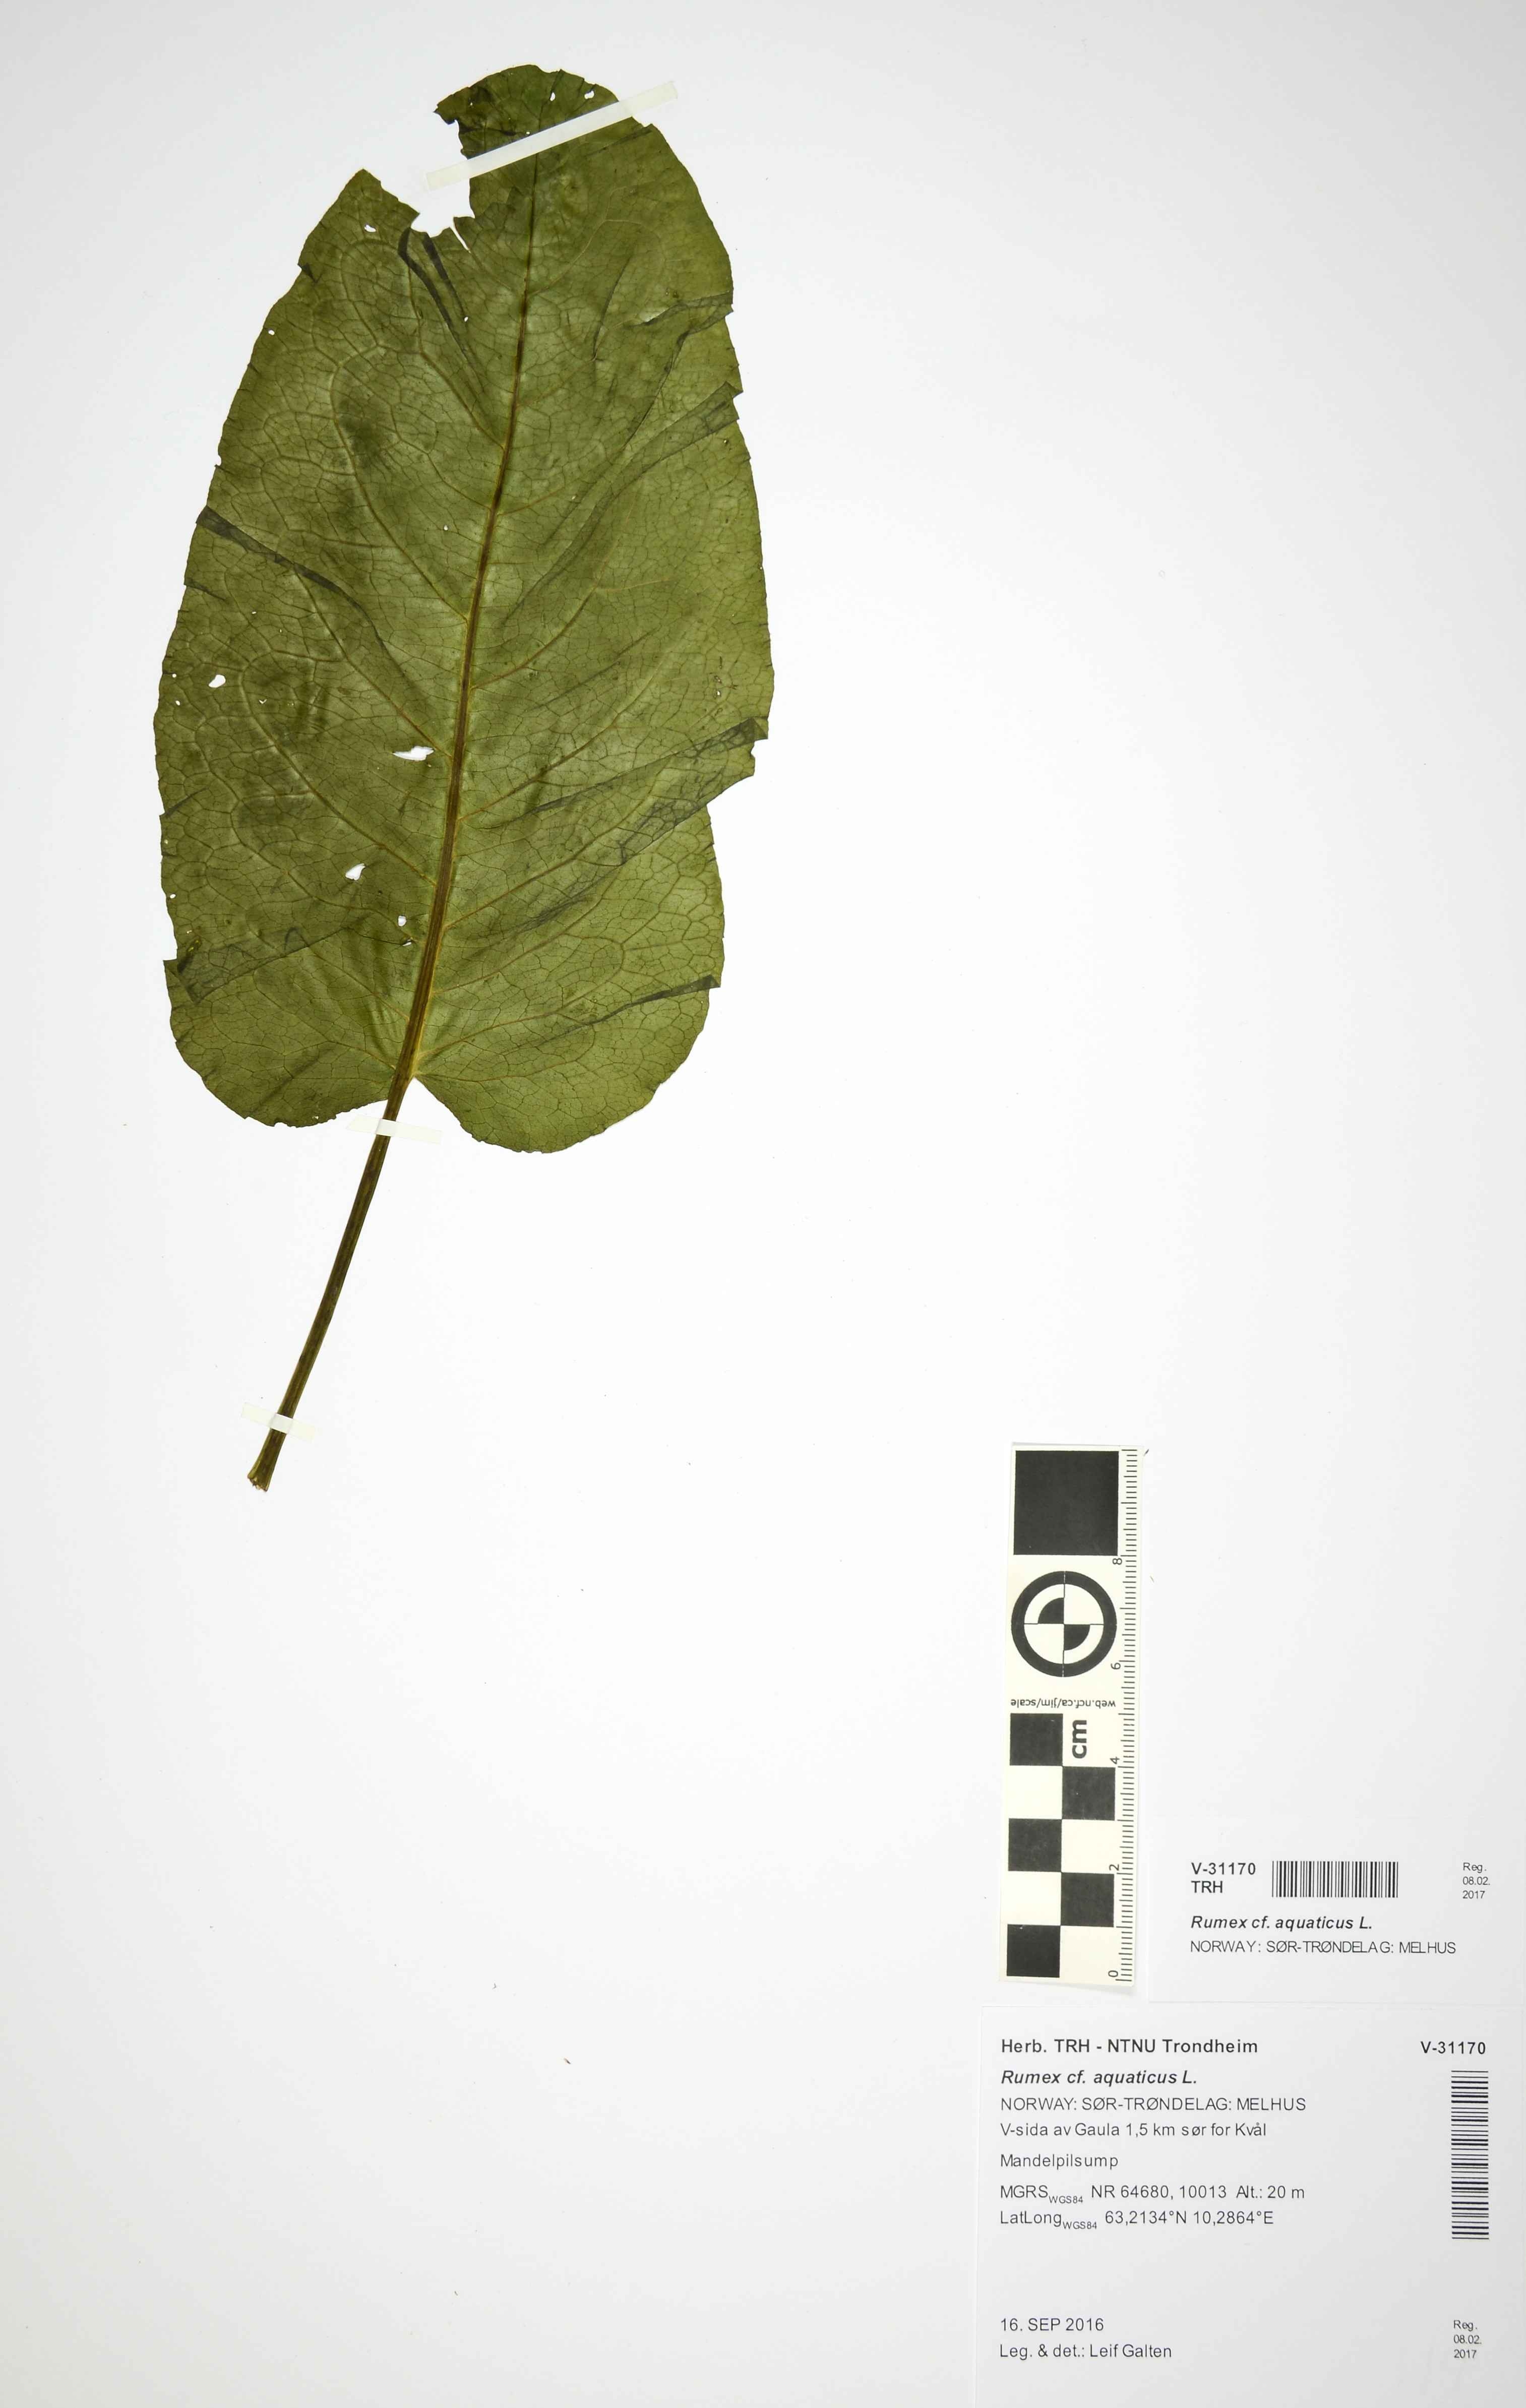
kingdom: Plantae
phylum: Tracheophyta
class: Magnoliopsida
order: Caryophyllales
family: Polygonaceae
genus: Rumex
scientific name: Rumex aquaticus
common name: Scottish dock
